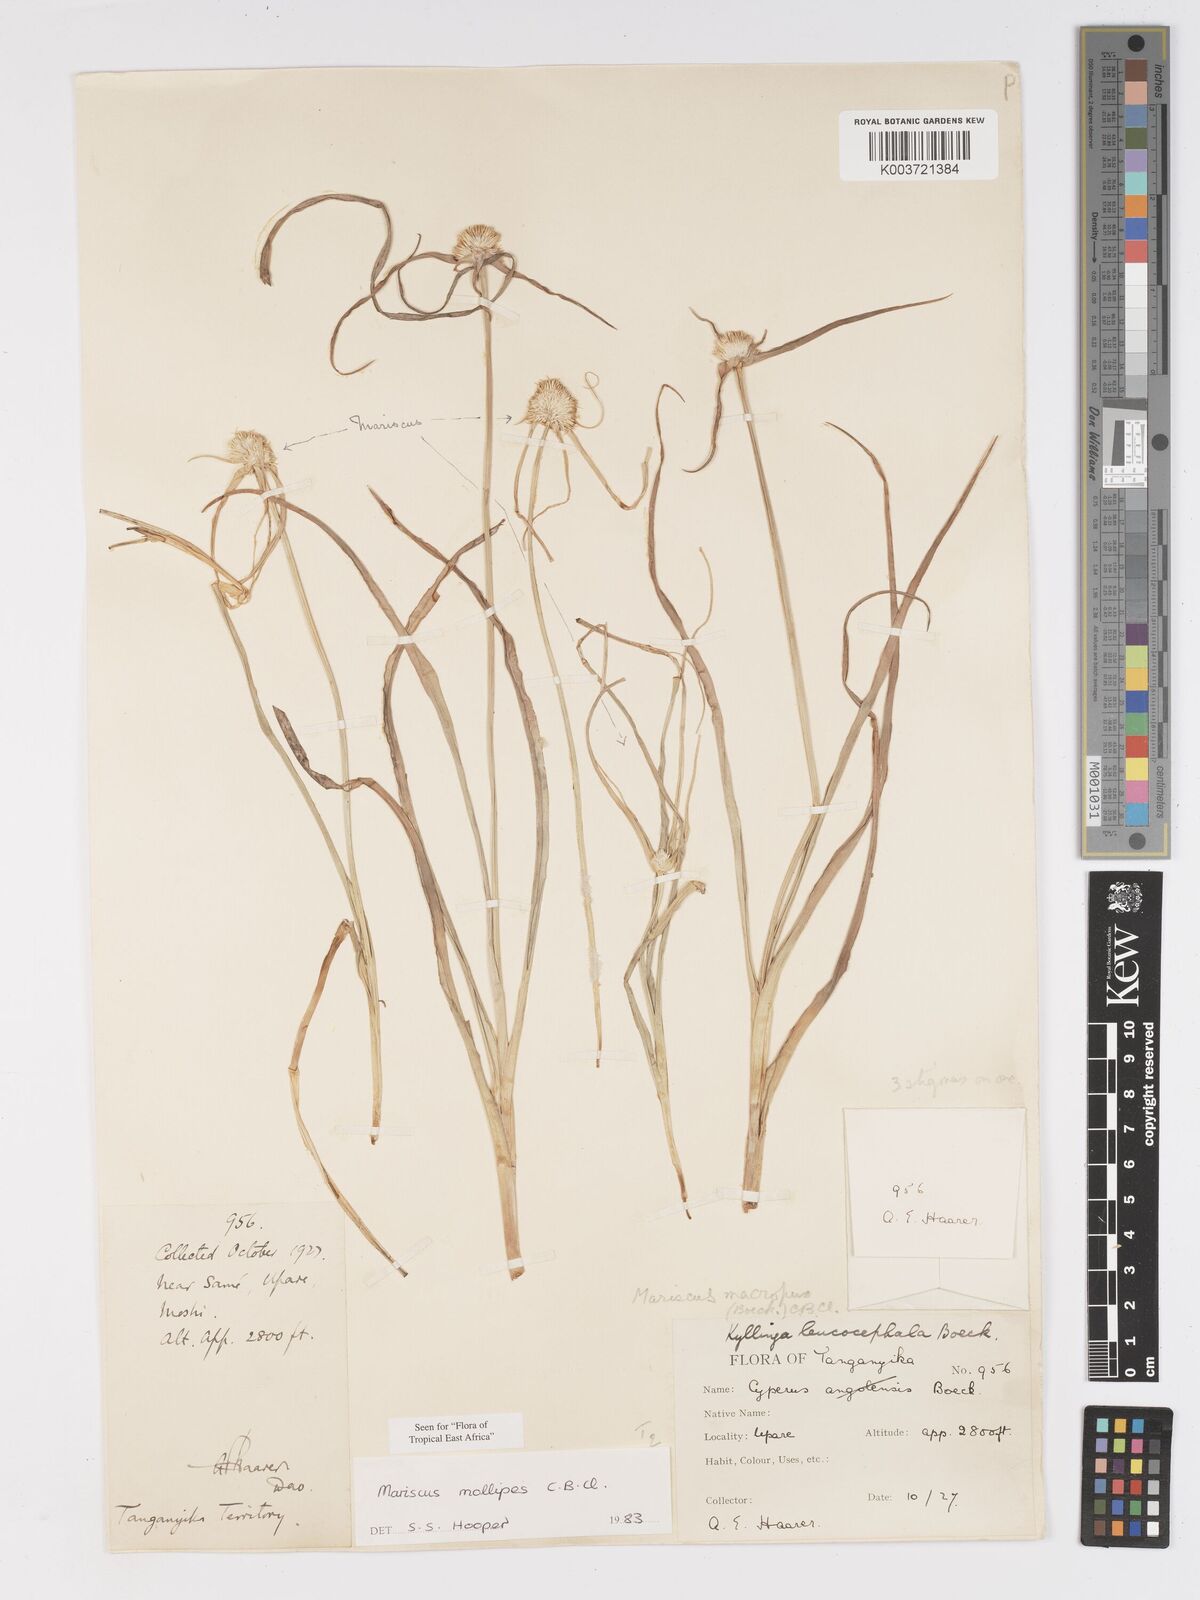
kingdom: Plantae
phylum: Tracheophyta
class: Liliopsida
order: Poales
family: Cyperaceae
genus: Cyperus
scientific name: Cyperus mollipes
